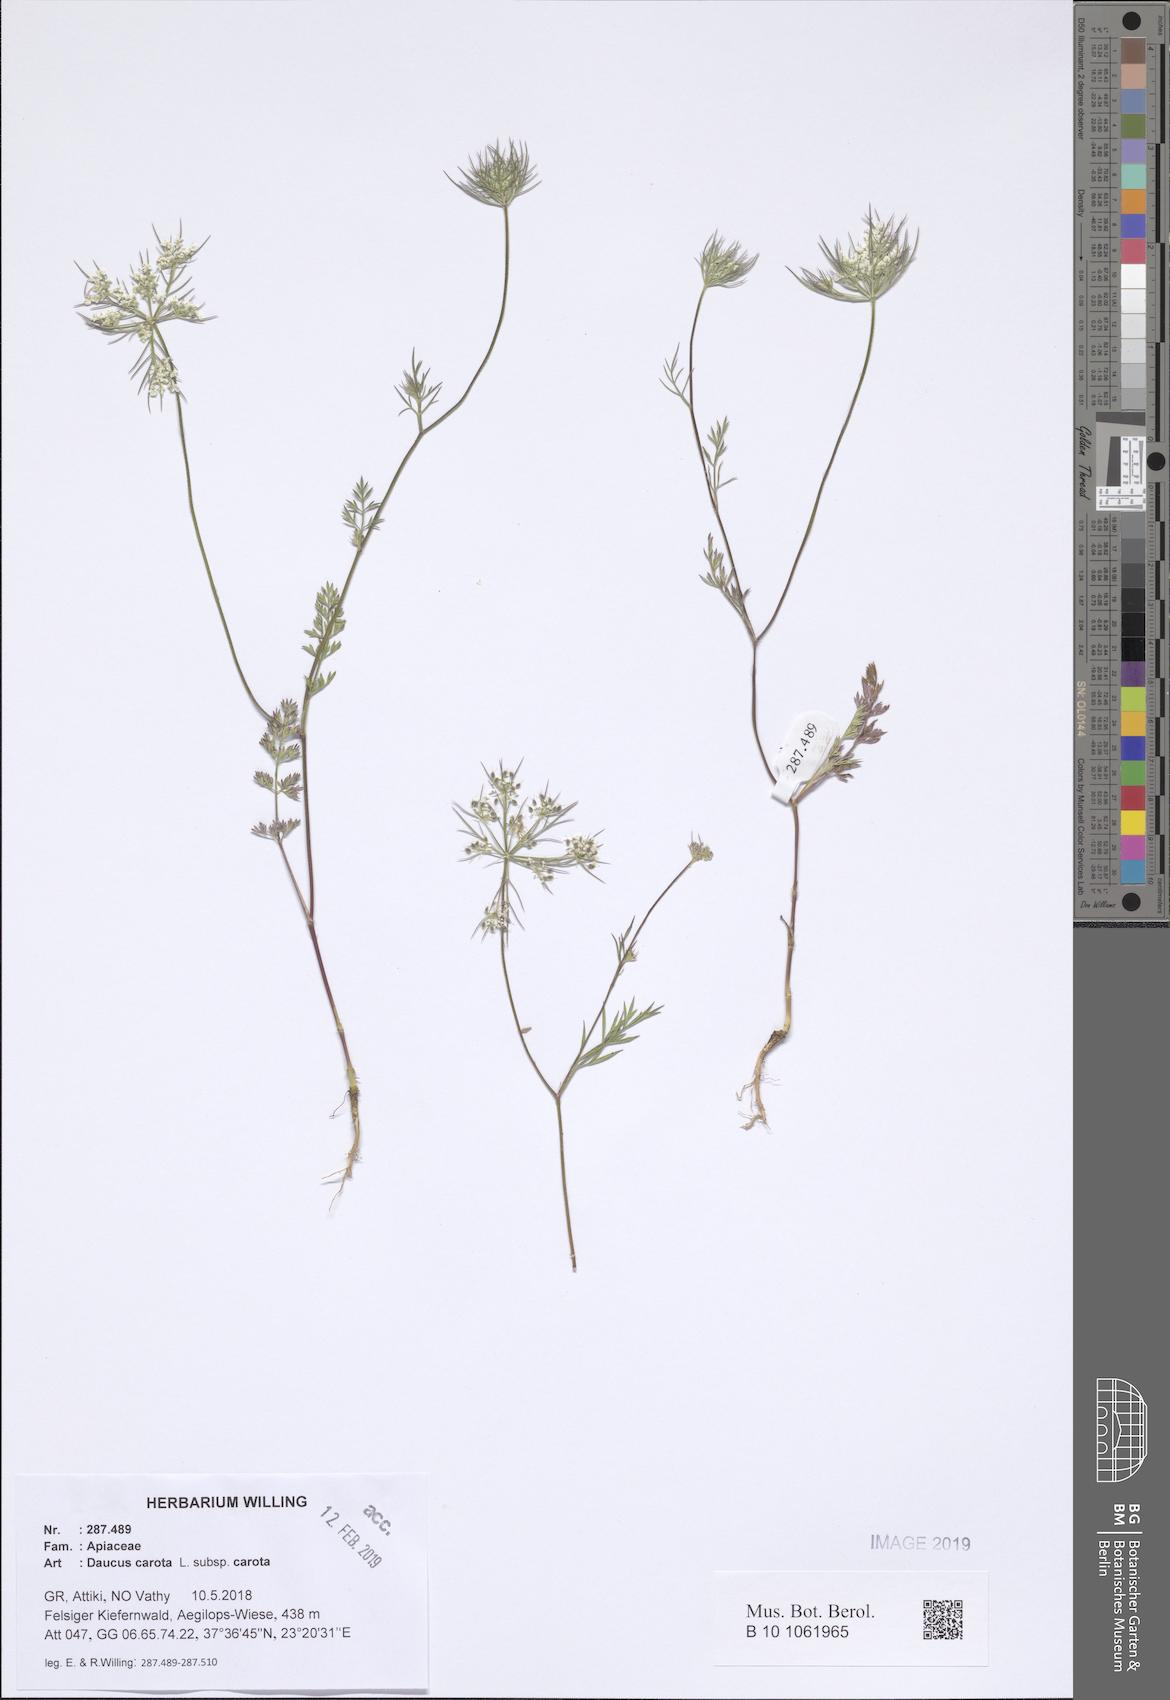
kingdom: Plantae
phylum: Tracheophyta
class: Magnoliopsida
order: Apiales
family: Apiaceae
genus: Daucus
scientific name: Daucus carota
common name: Wild carrot
